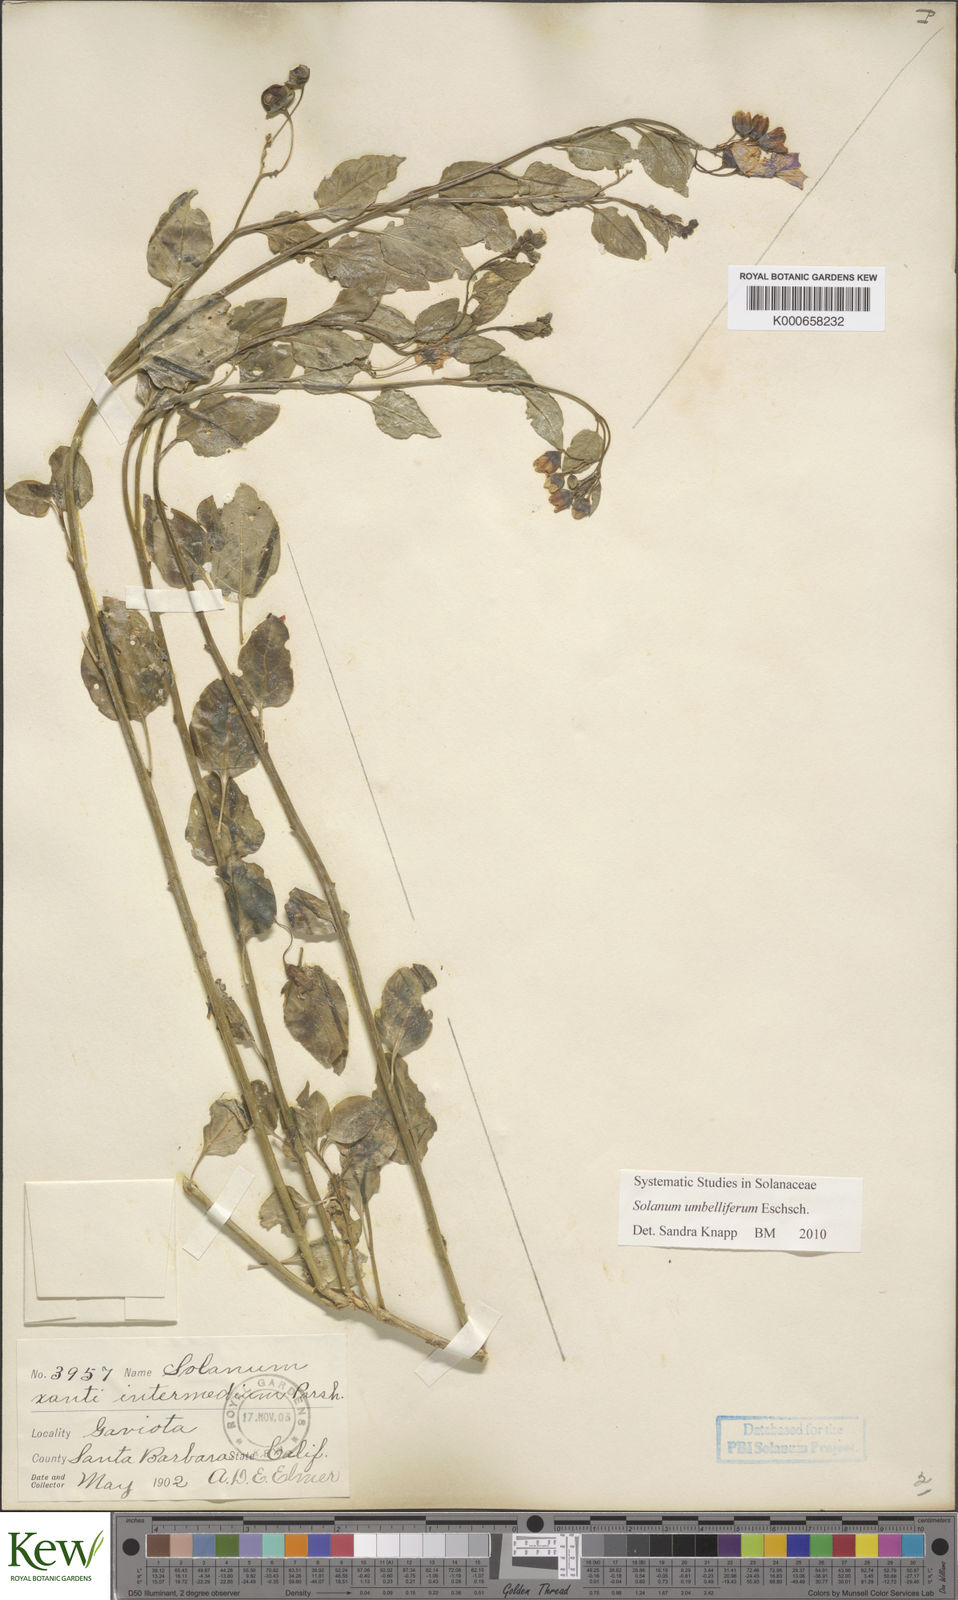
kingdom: Plantae
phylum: Tracheophyta
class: Magnoliopsida
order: Solanales
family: Solanaceae
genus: Solanum
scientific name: Solanum umbelliferum
